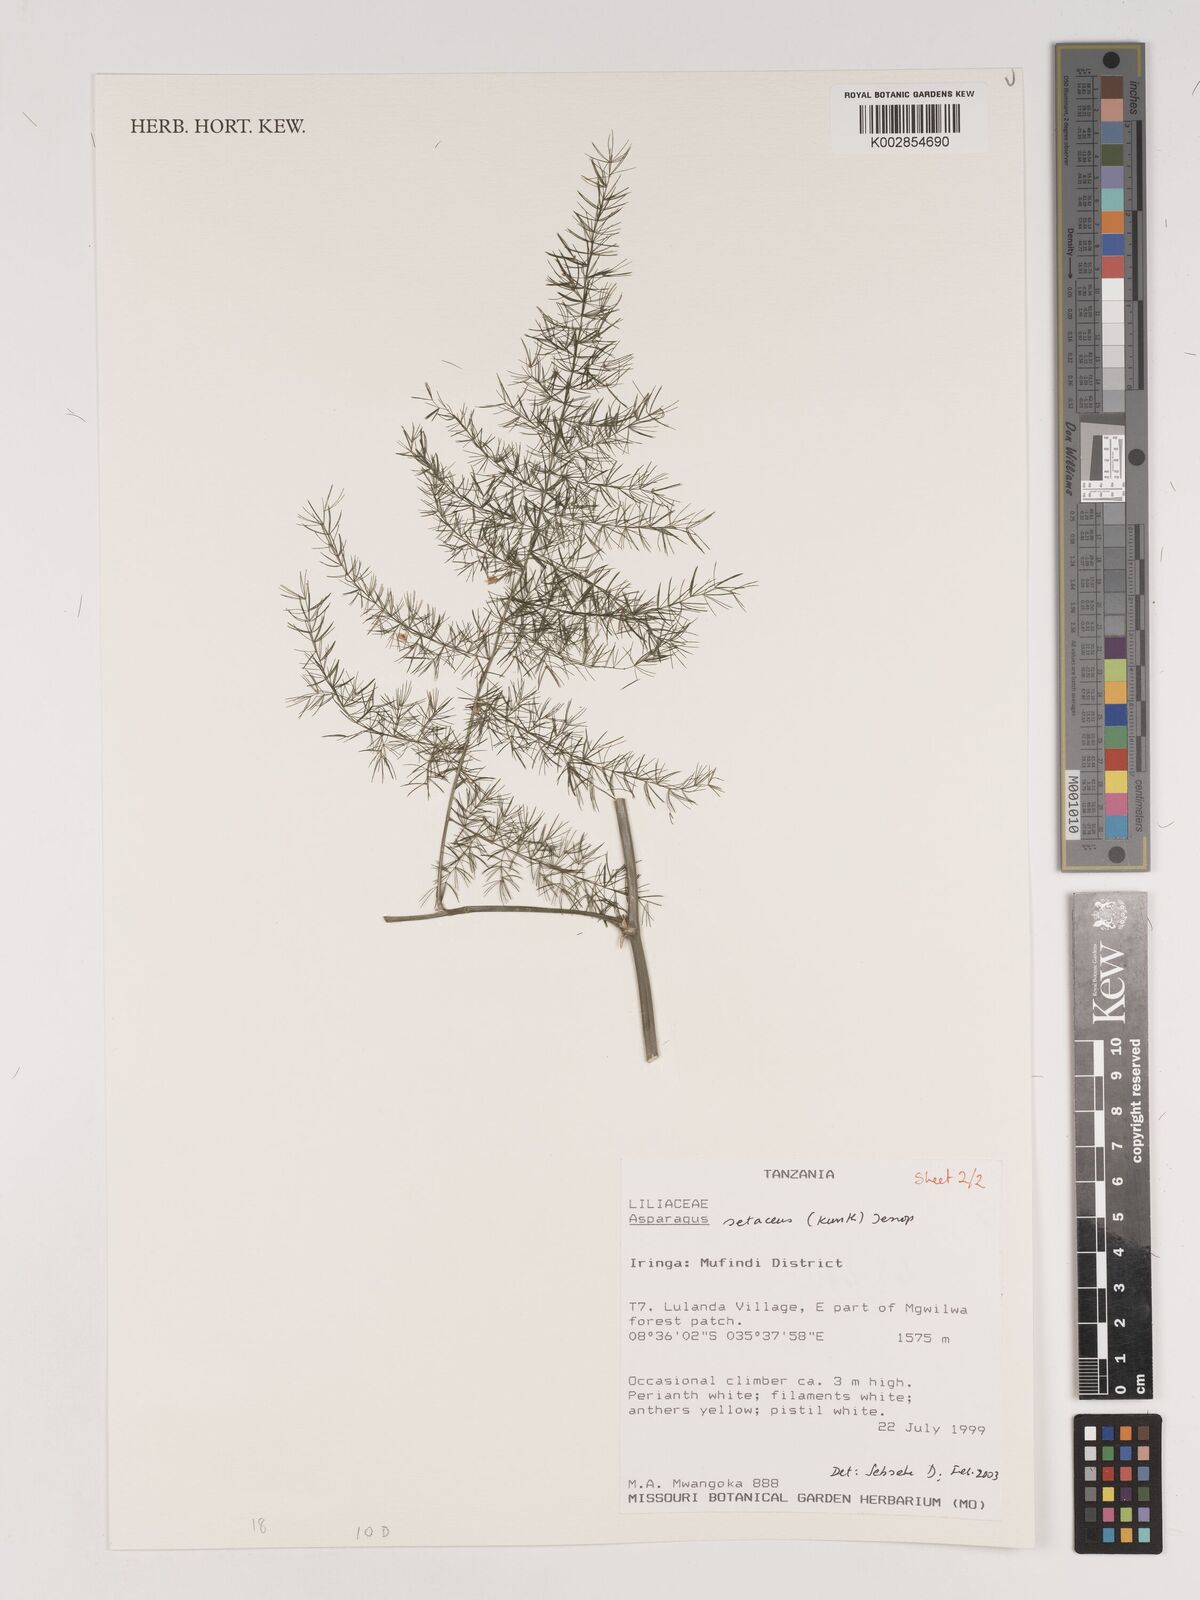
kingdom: Plantae
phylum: Tracheophyta
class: Liliopsida
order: Asparagales
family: Asparagaceae
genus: Asparagus
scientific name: Asparagus setaceus
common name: Common asparagus fern
